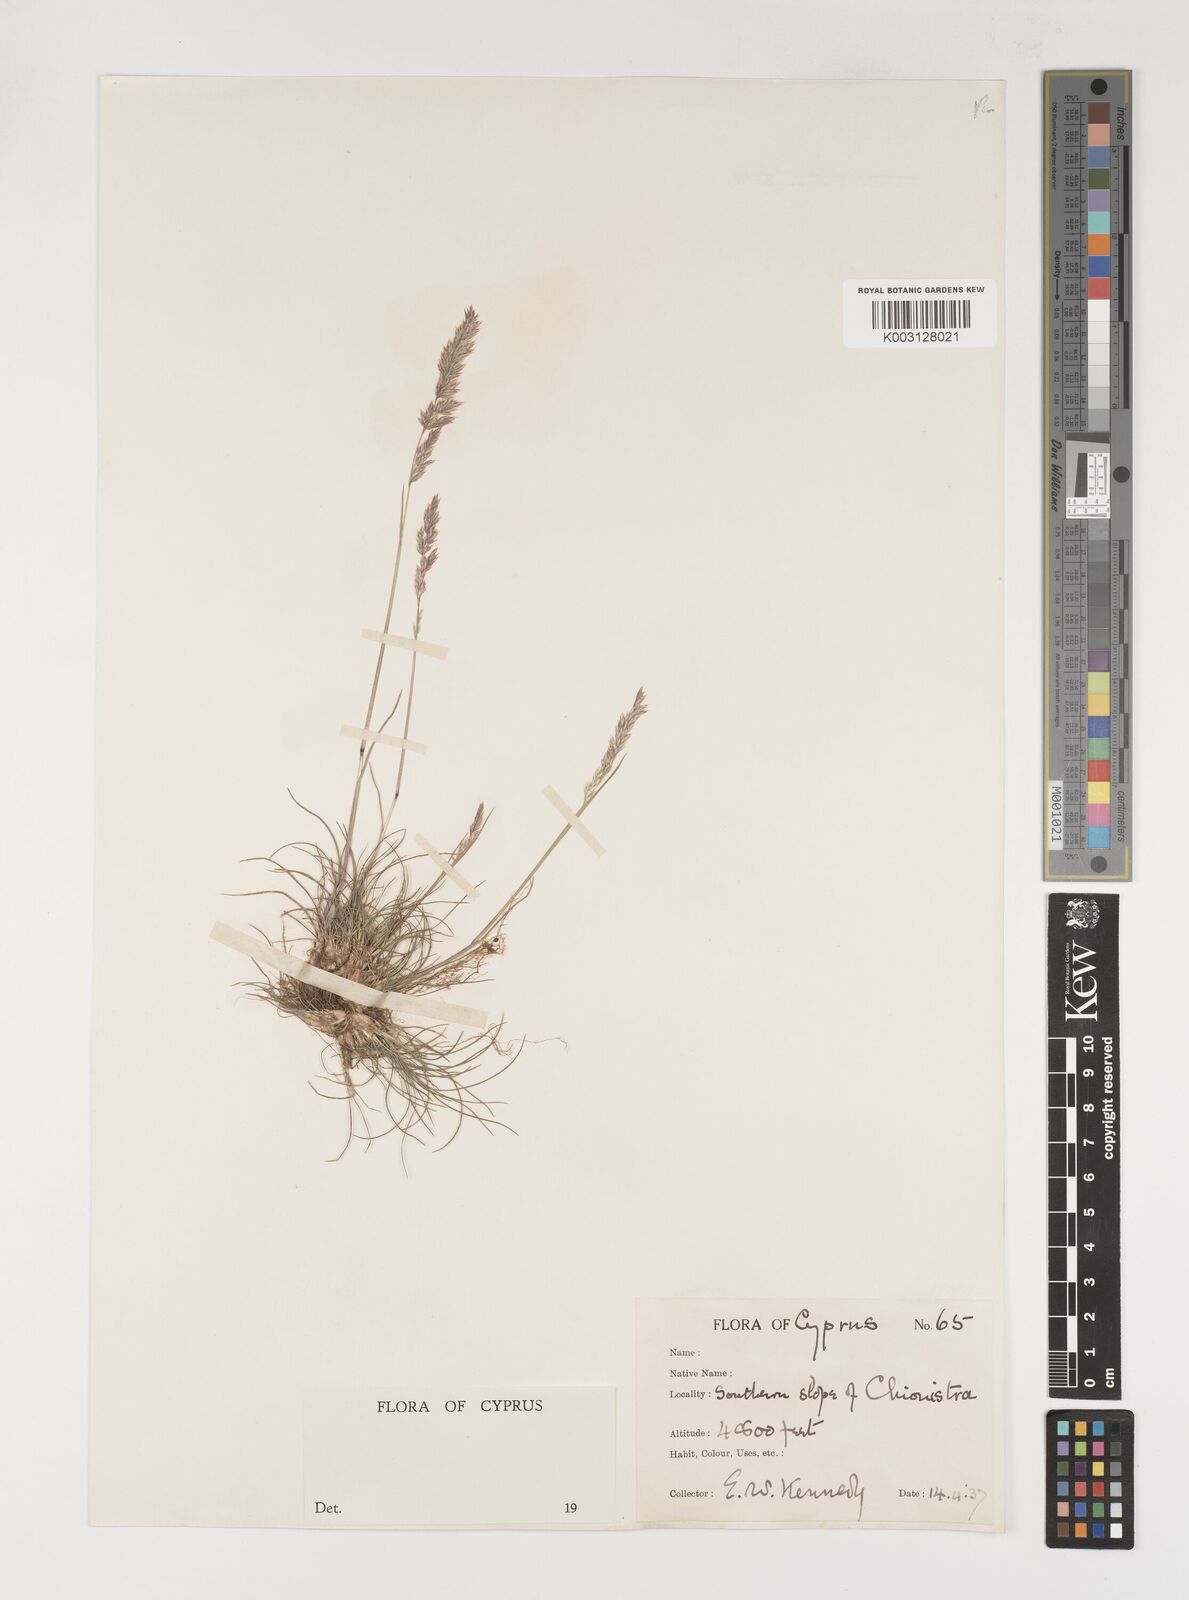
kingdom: Plantae
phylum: Tracheophyta
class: Liliopsida
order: Poales
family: Poaceae
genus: Poa
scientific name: Poa bulbosa
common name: Bulbous bluegrass
